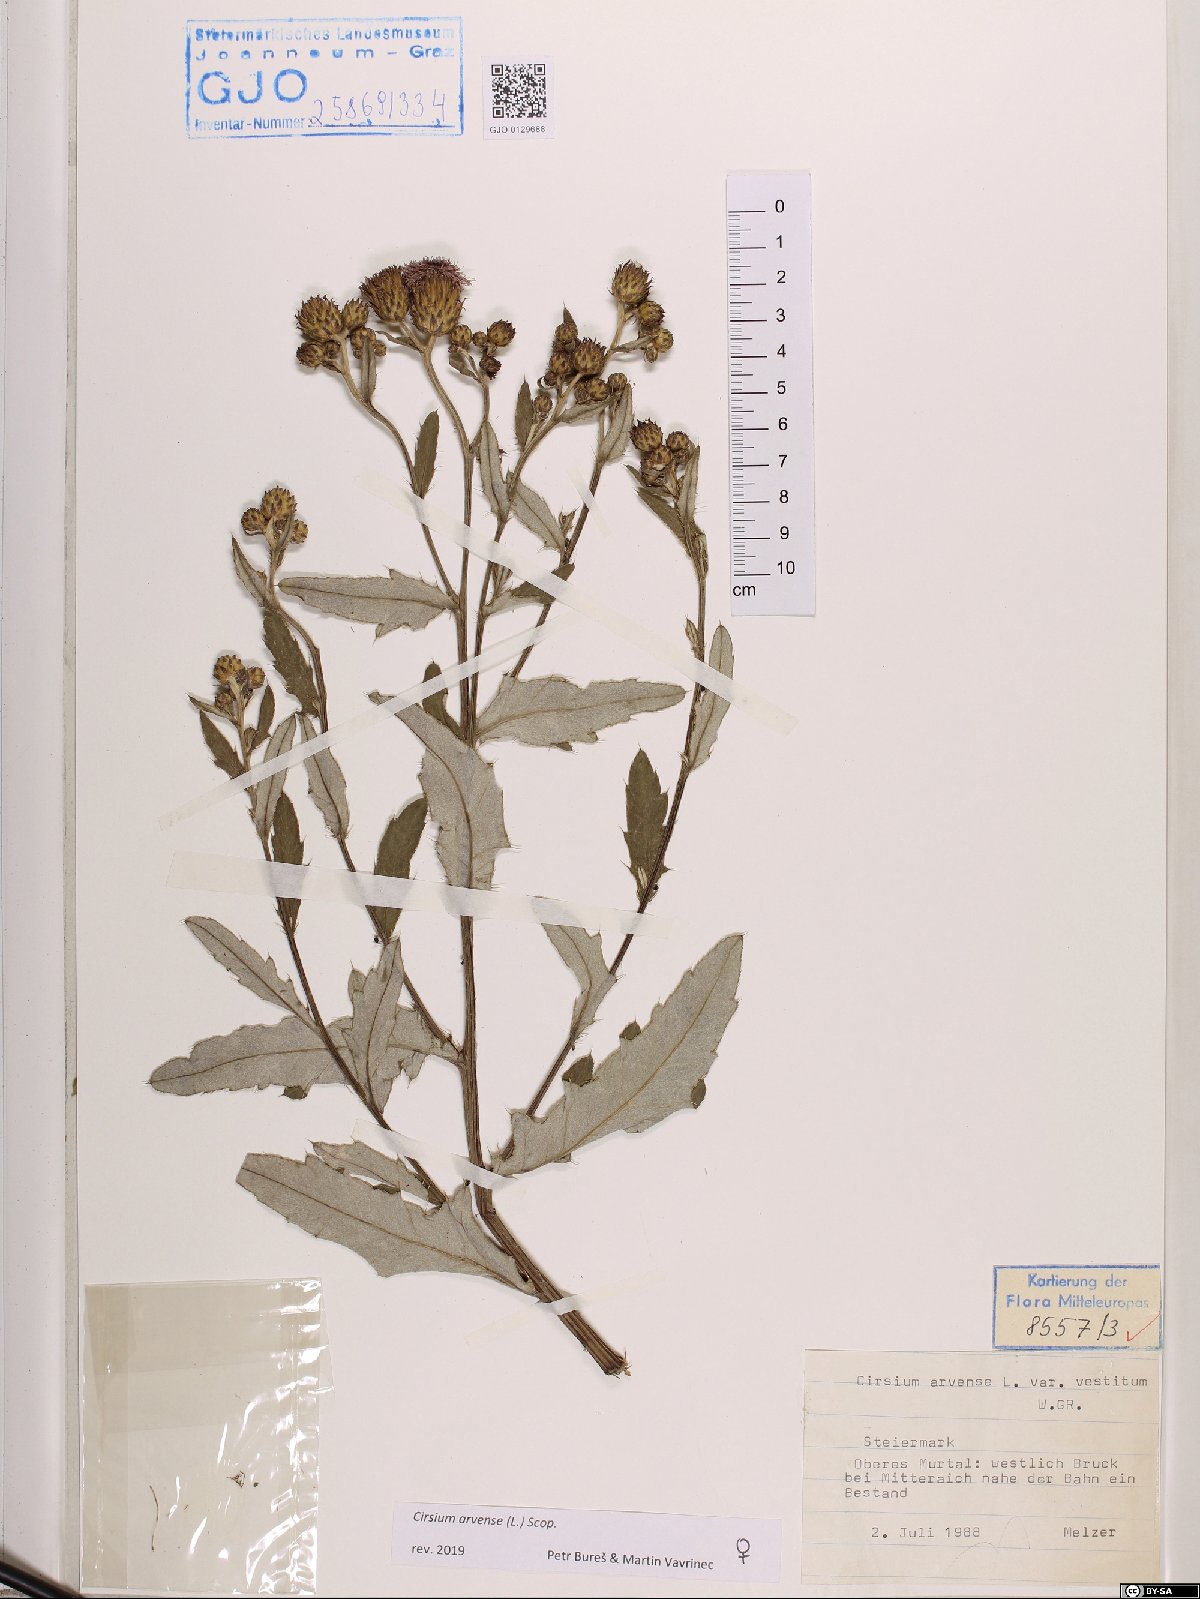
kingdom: Plantae
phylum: Tracheophyta
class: Magnoliopsida
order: Asterales
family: Asteraceae
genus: Cirsium
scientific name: Cirsium arvense
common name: Creeping thistle
